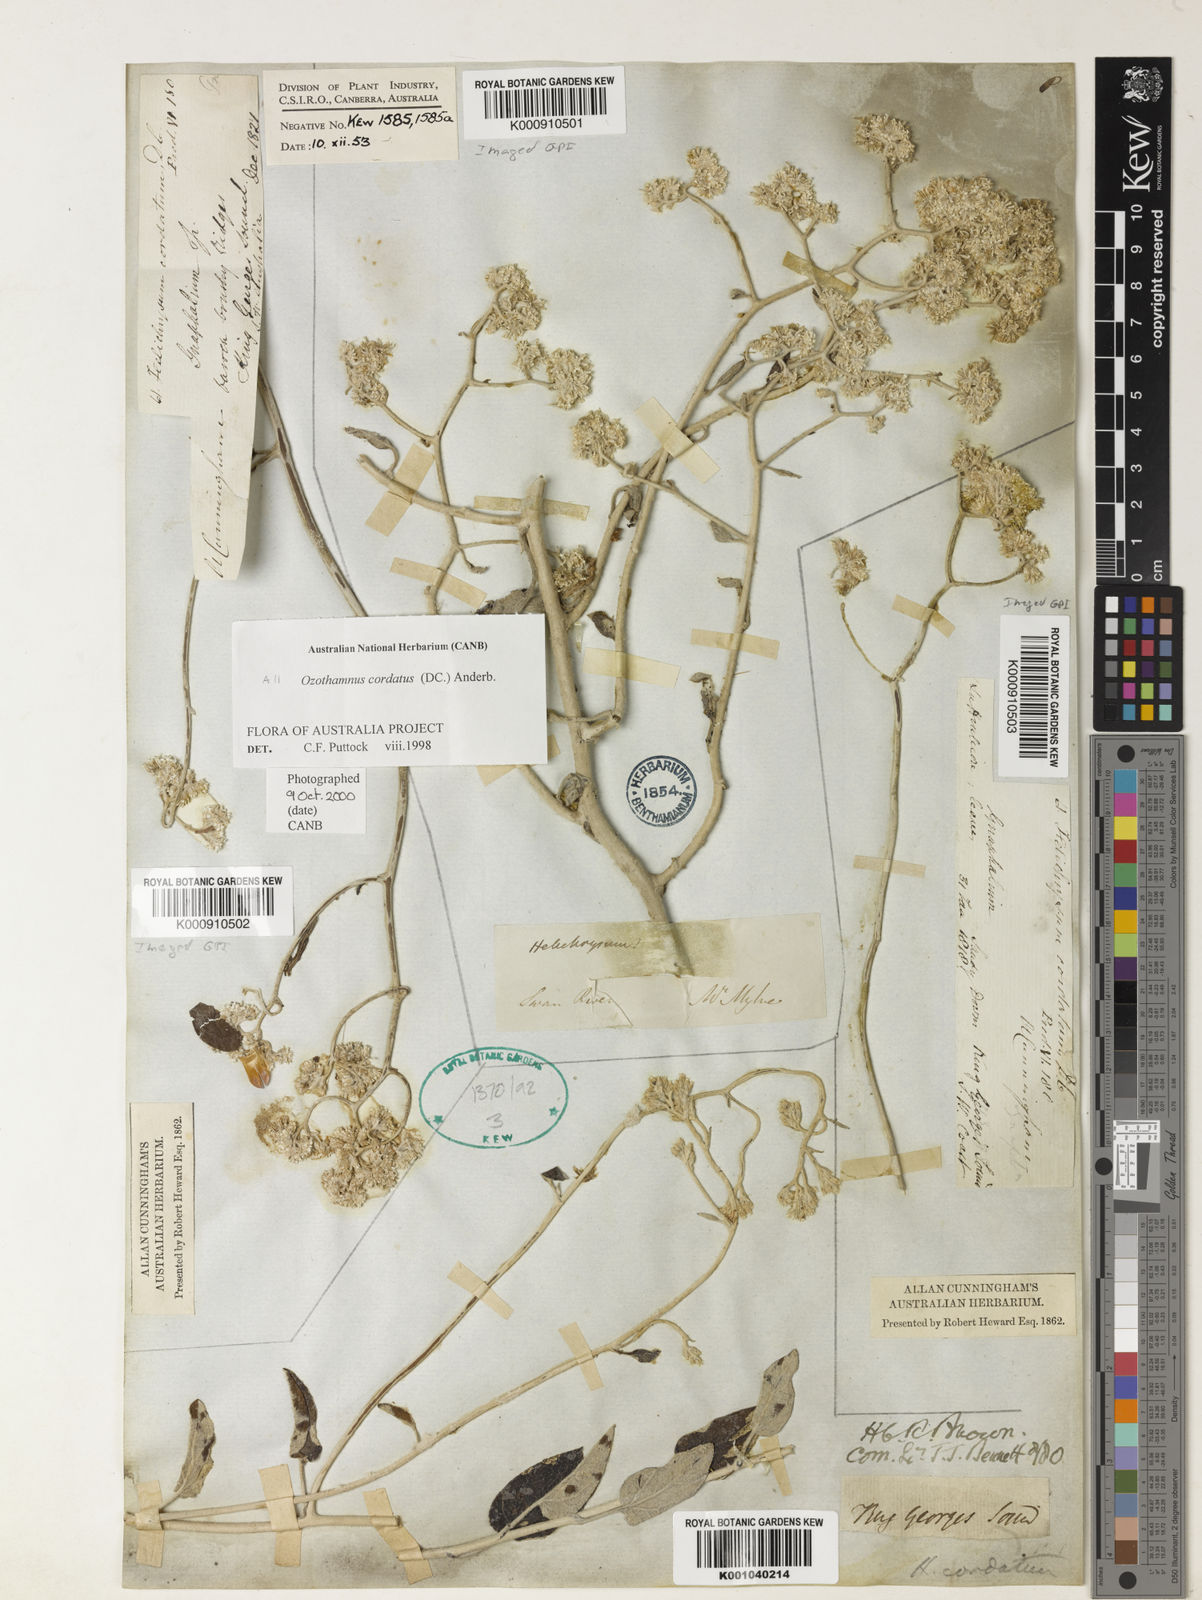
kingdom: Plantae
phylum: Tracheophyta
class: Magnoliopsida
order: Asterales
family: Asteraceae
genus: Pithocarpa
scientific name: Pithocarpa cordata
